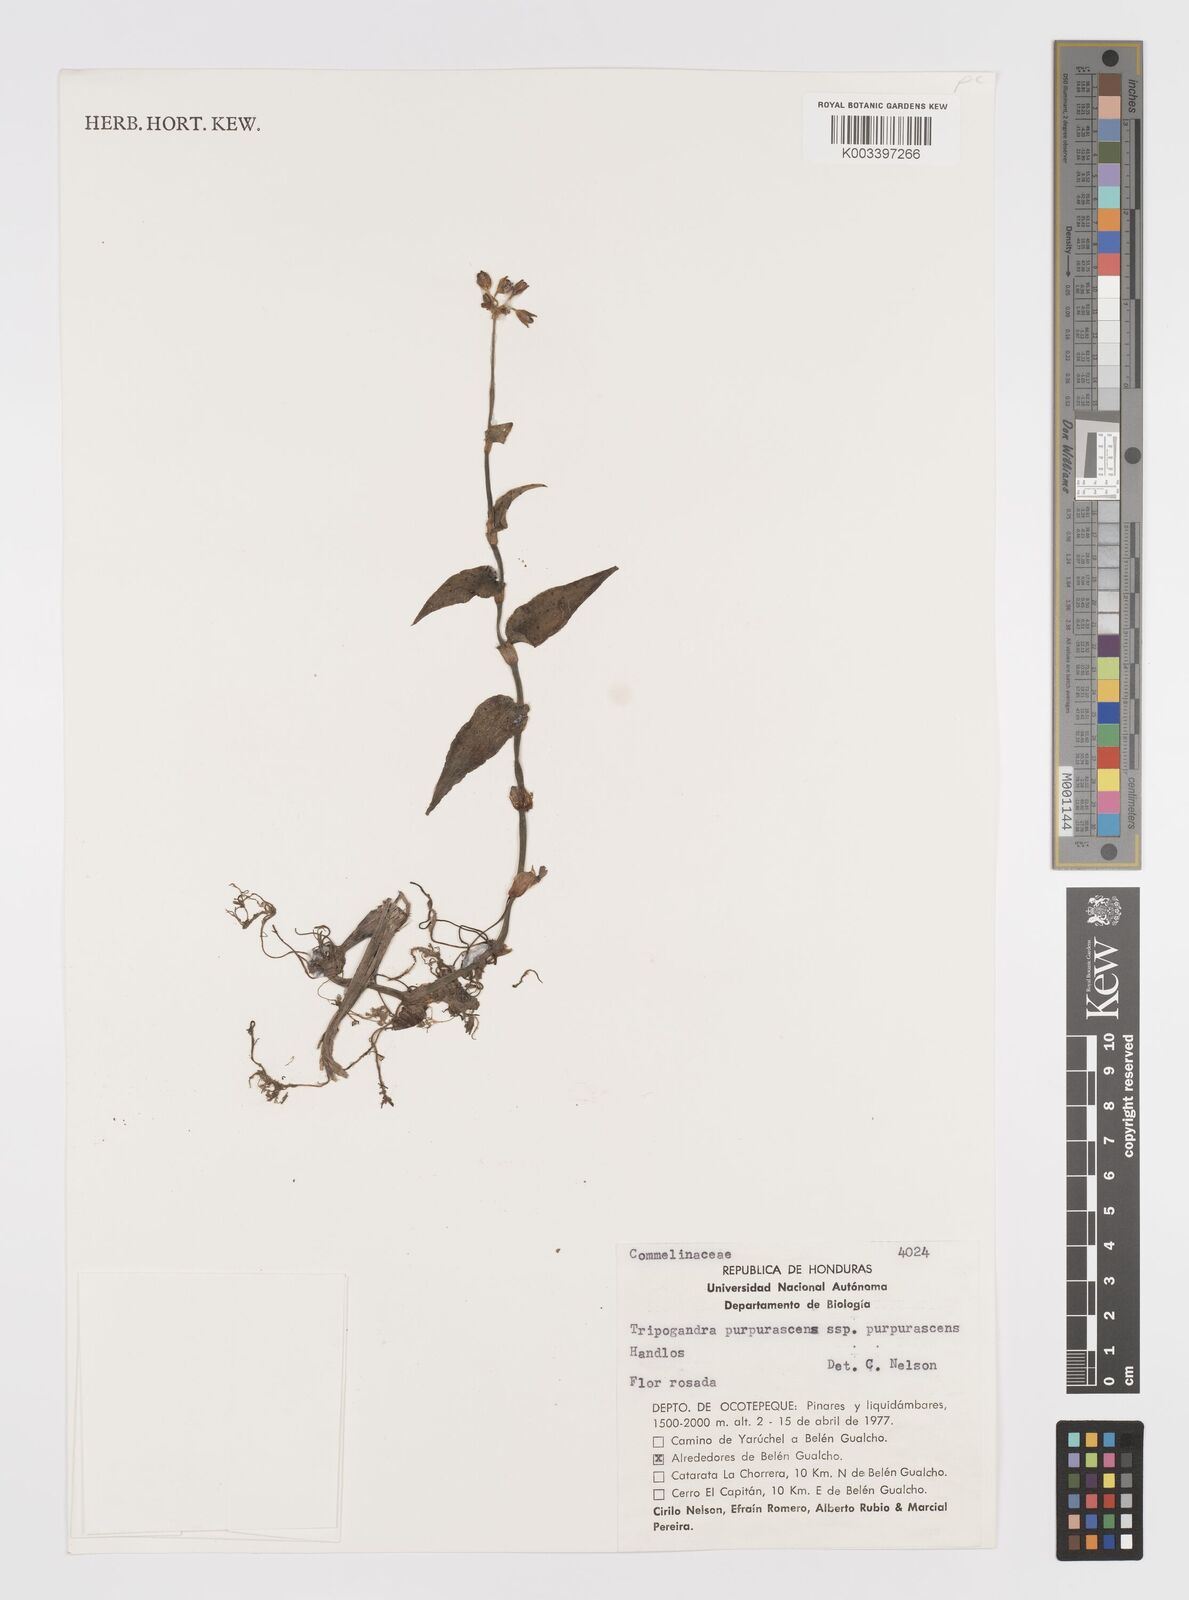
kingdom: Plantae
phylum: Tracheophyta
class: Liliopsida
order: Commelinales
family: Commelinaceae
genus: Callisia
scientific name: Callisia purpurascens
